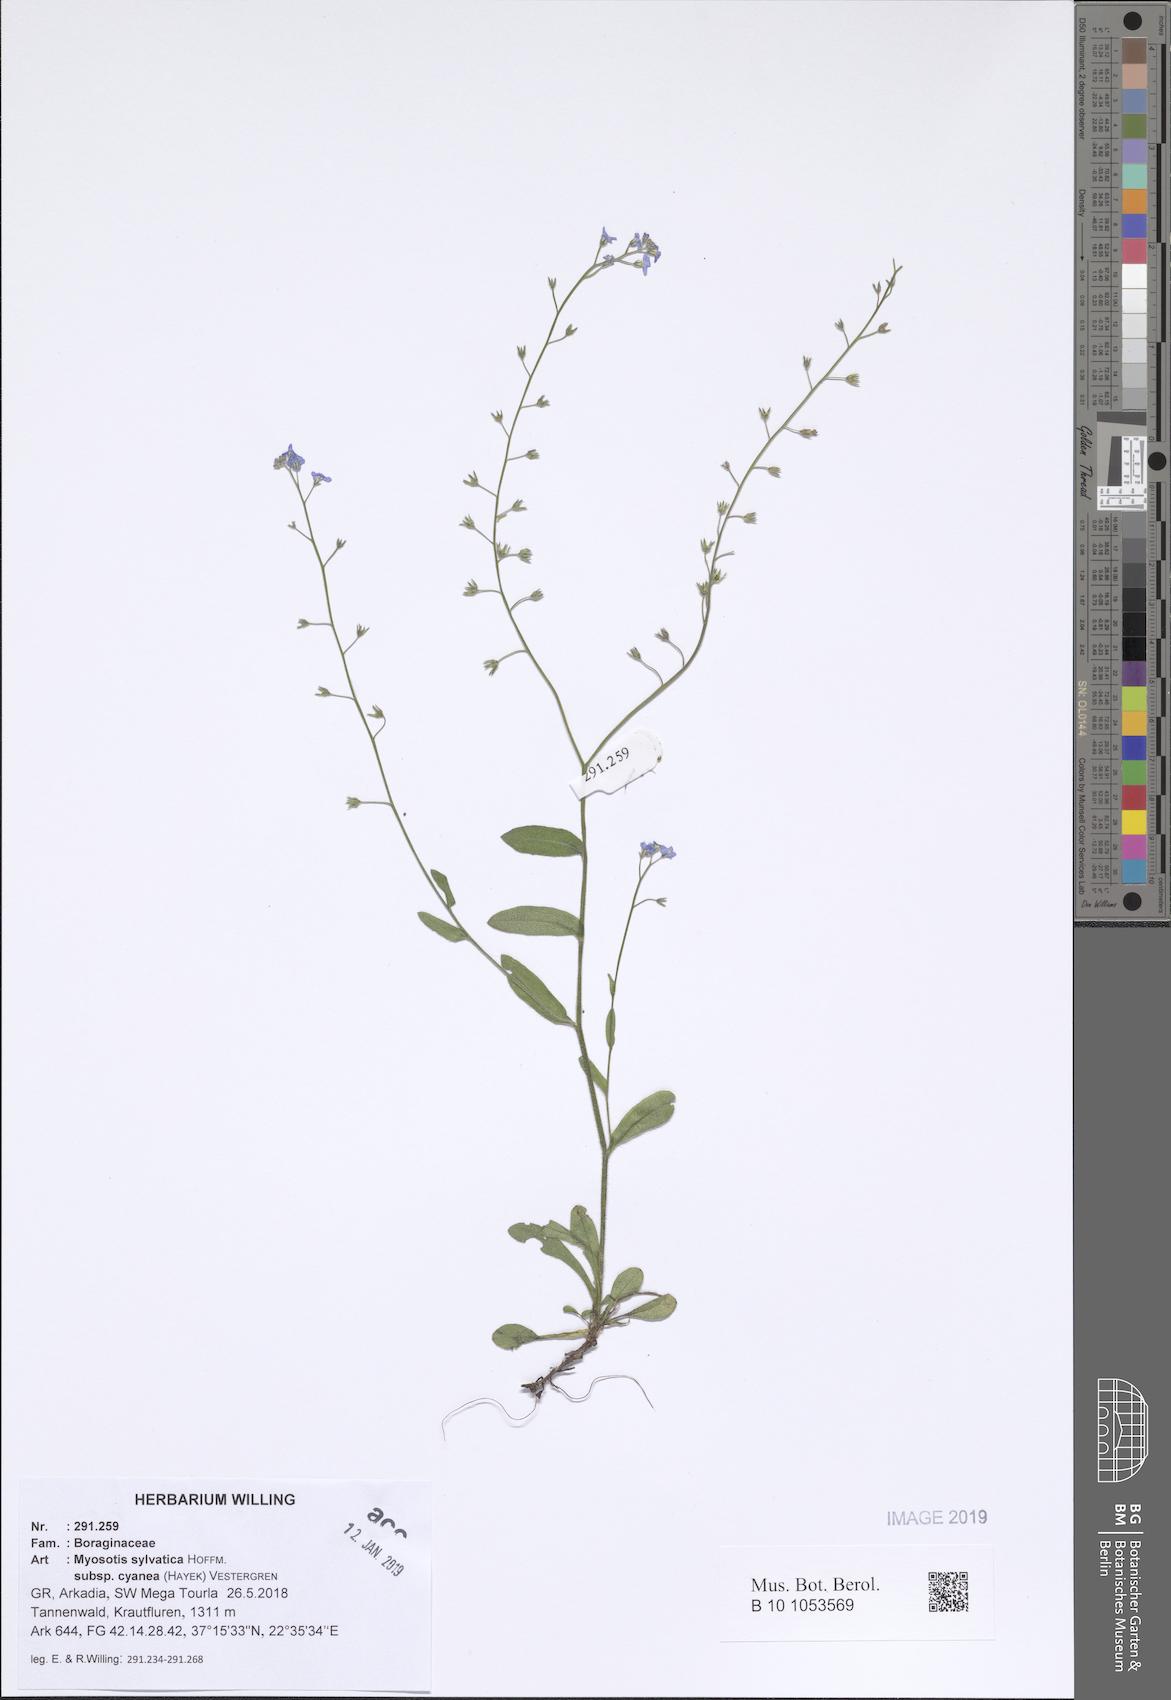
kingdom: Plantae
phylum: Tracheophyta
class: Magnoliopsida
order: Boraginales
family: Boraginaceae
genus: Myosotis
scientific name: Myosotis sylvatica
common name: Wood forget-me-not
